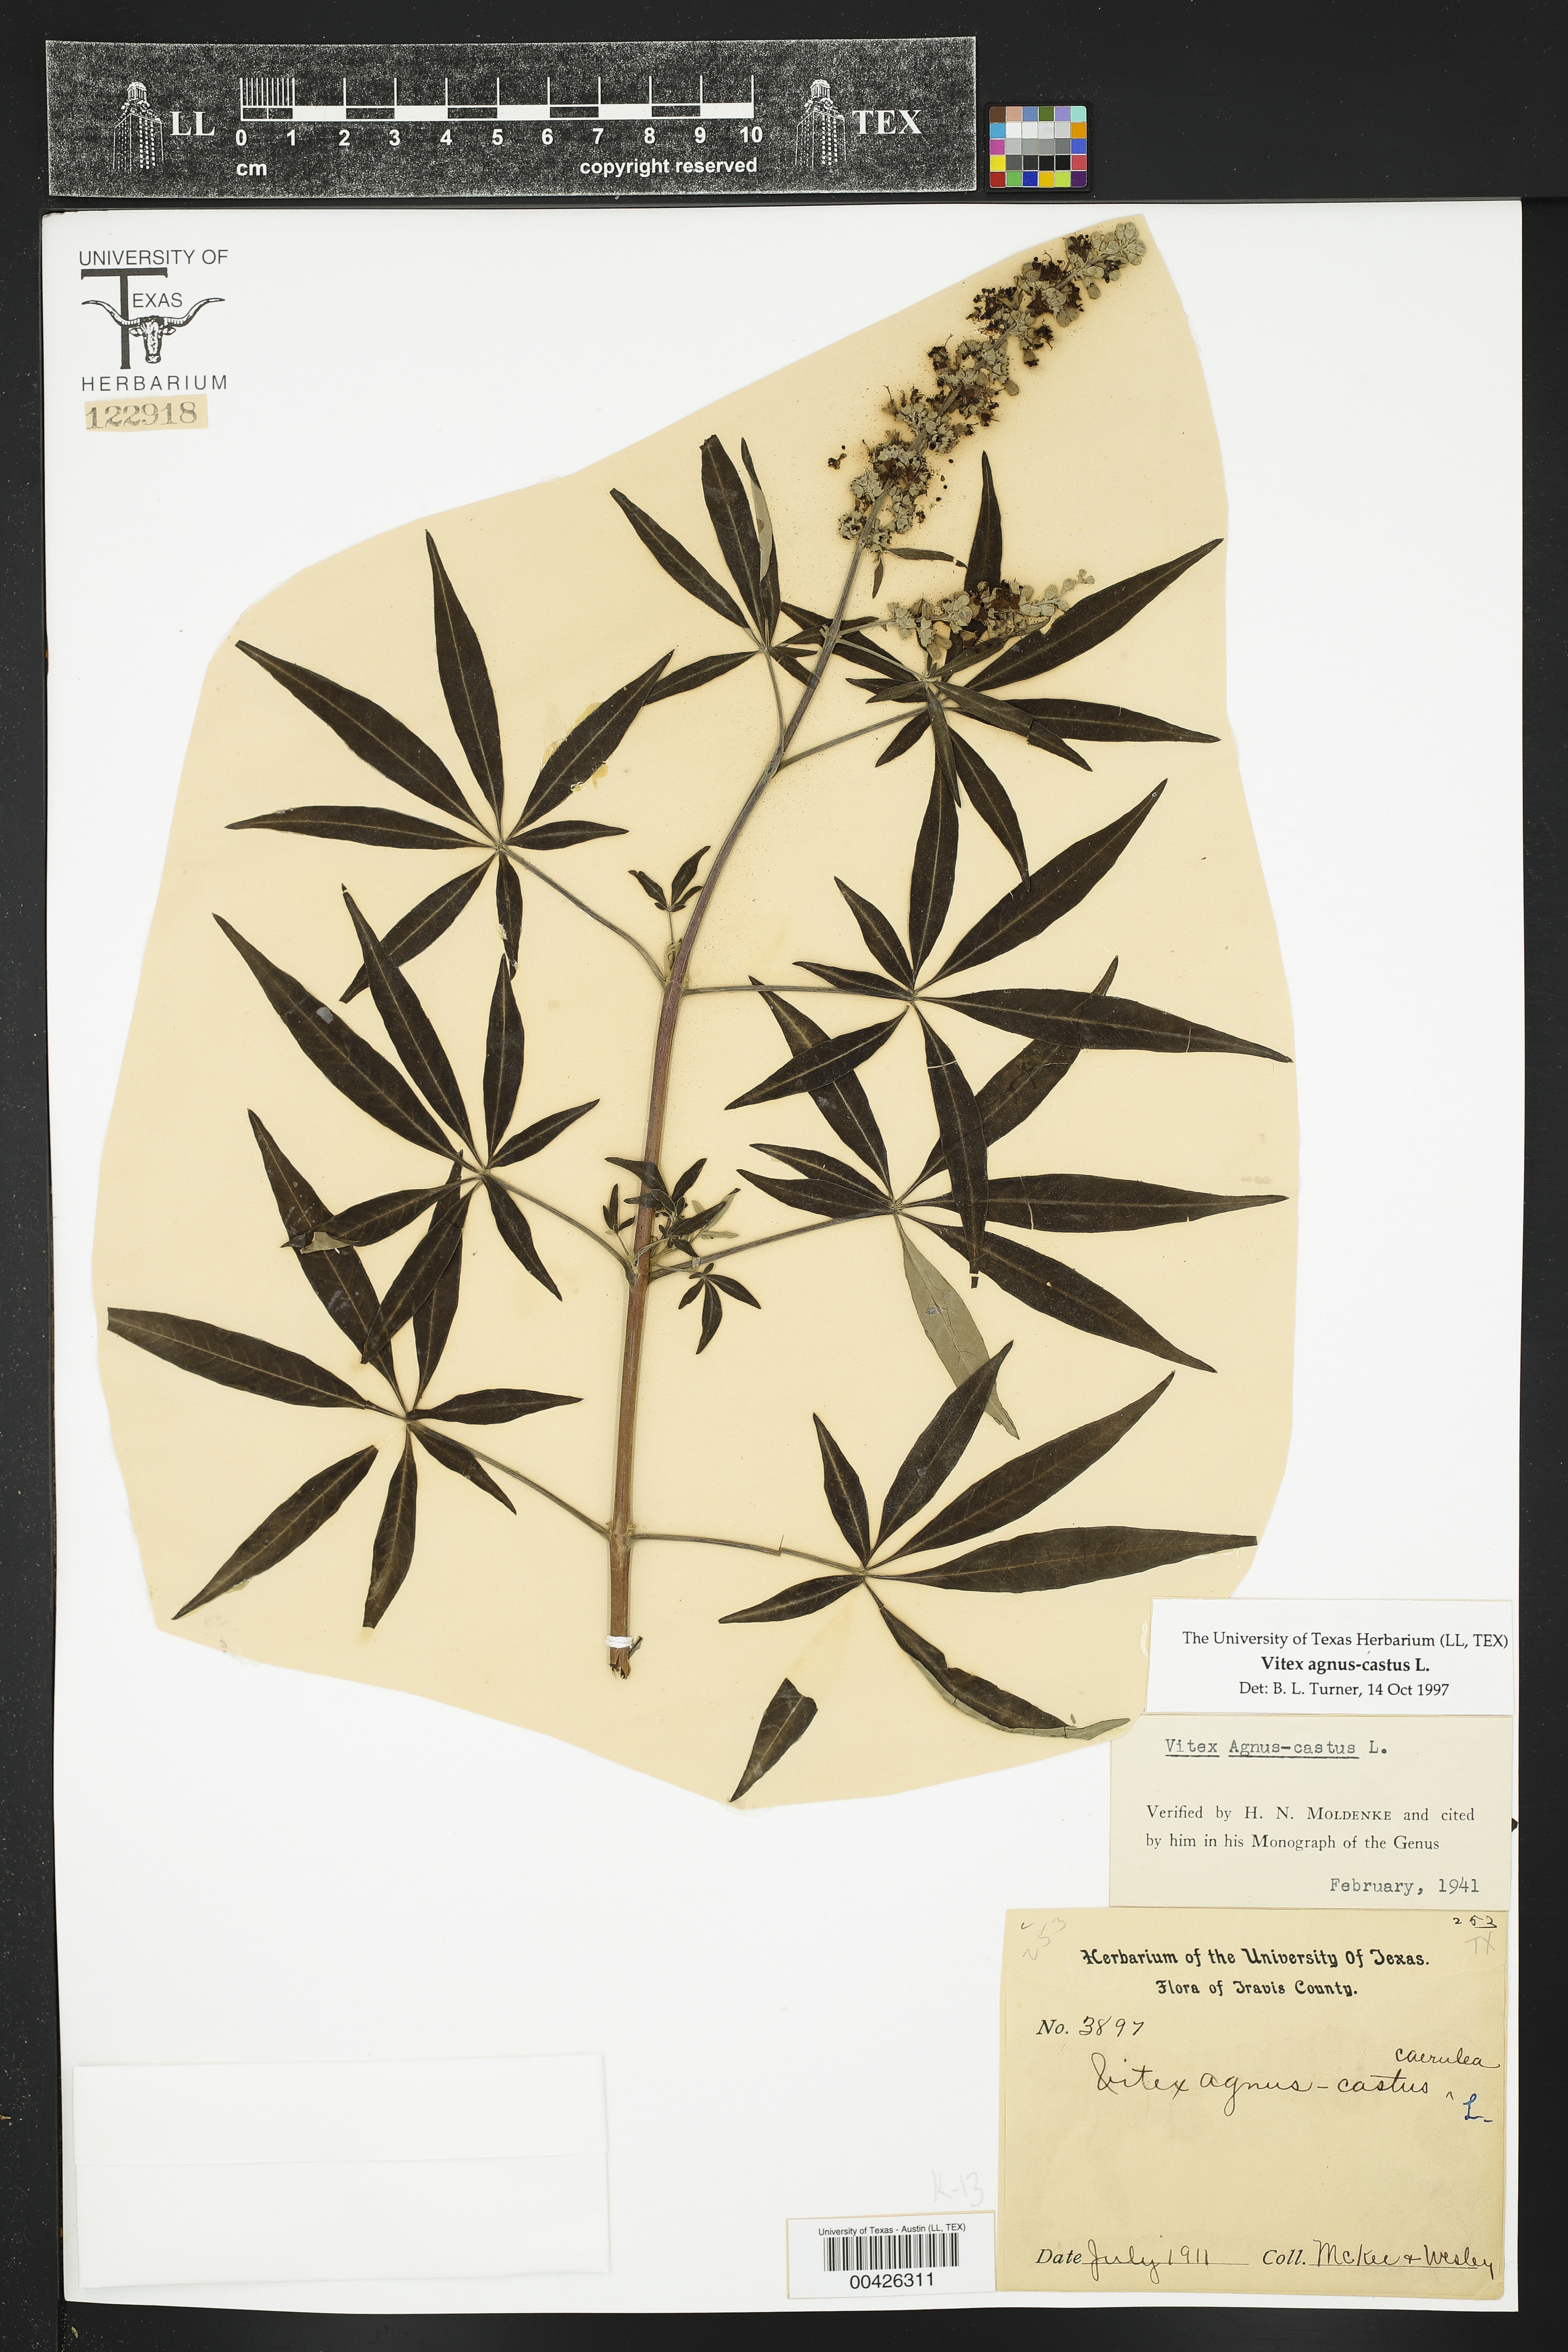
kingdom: Plantae
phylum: Tracheophyta
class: Magnoliopsida
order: Lamiales
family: Lamiaceae
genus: Vitex
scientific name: Vitex agnus-castus
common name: Chasteberry
